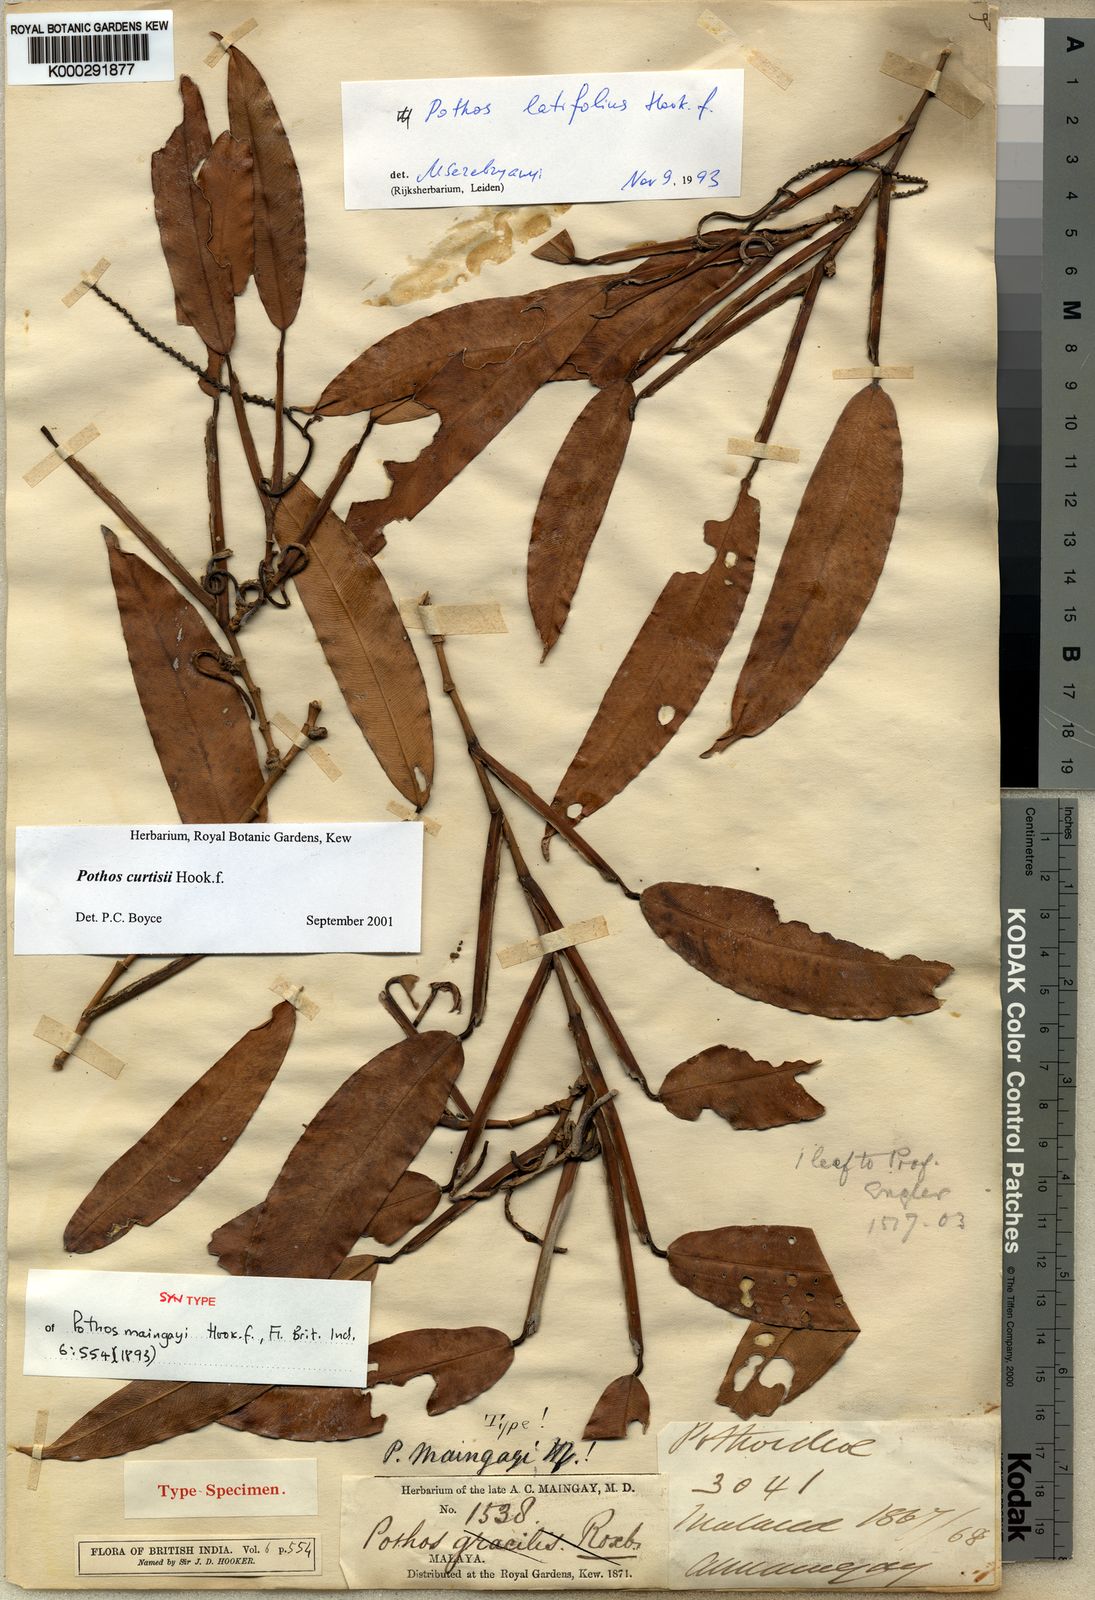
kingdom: Plantae
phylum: Tracheophyta
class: Liliopsida
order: Alismatales
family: Araceae
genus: Pothos
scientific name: Pothos curtisii
